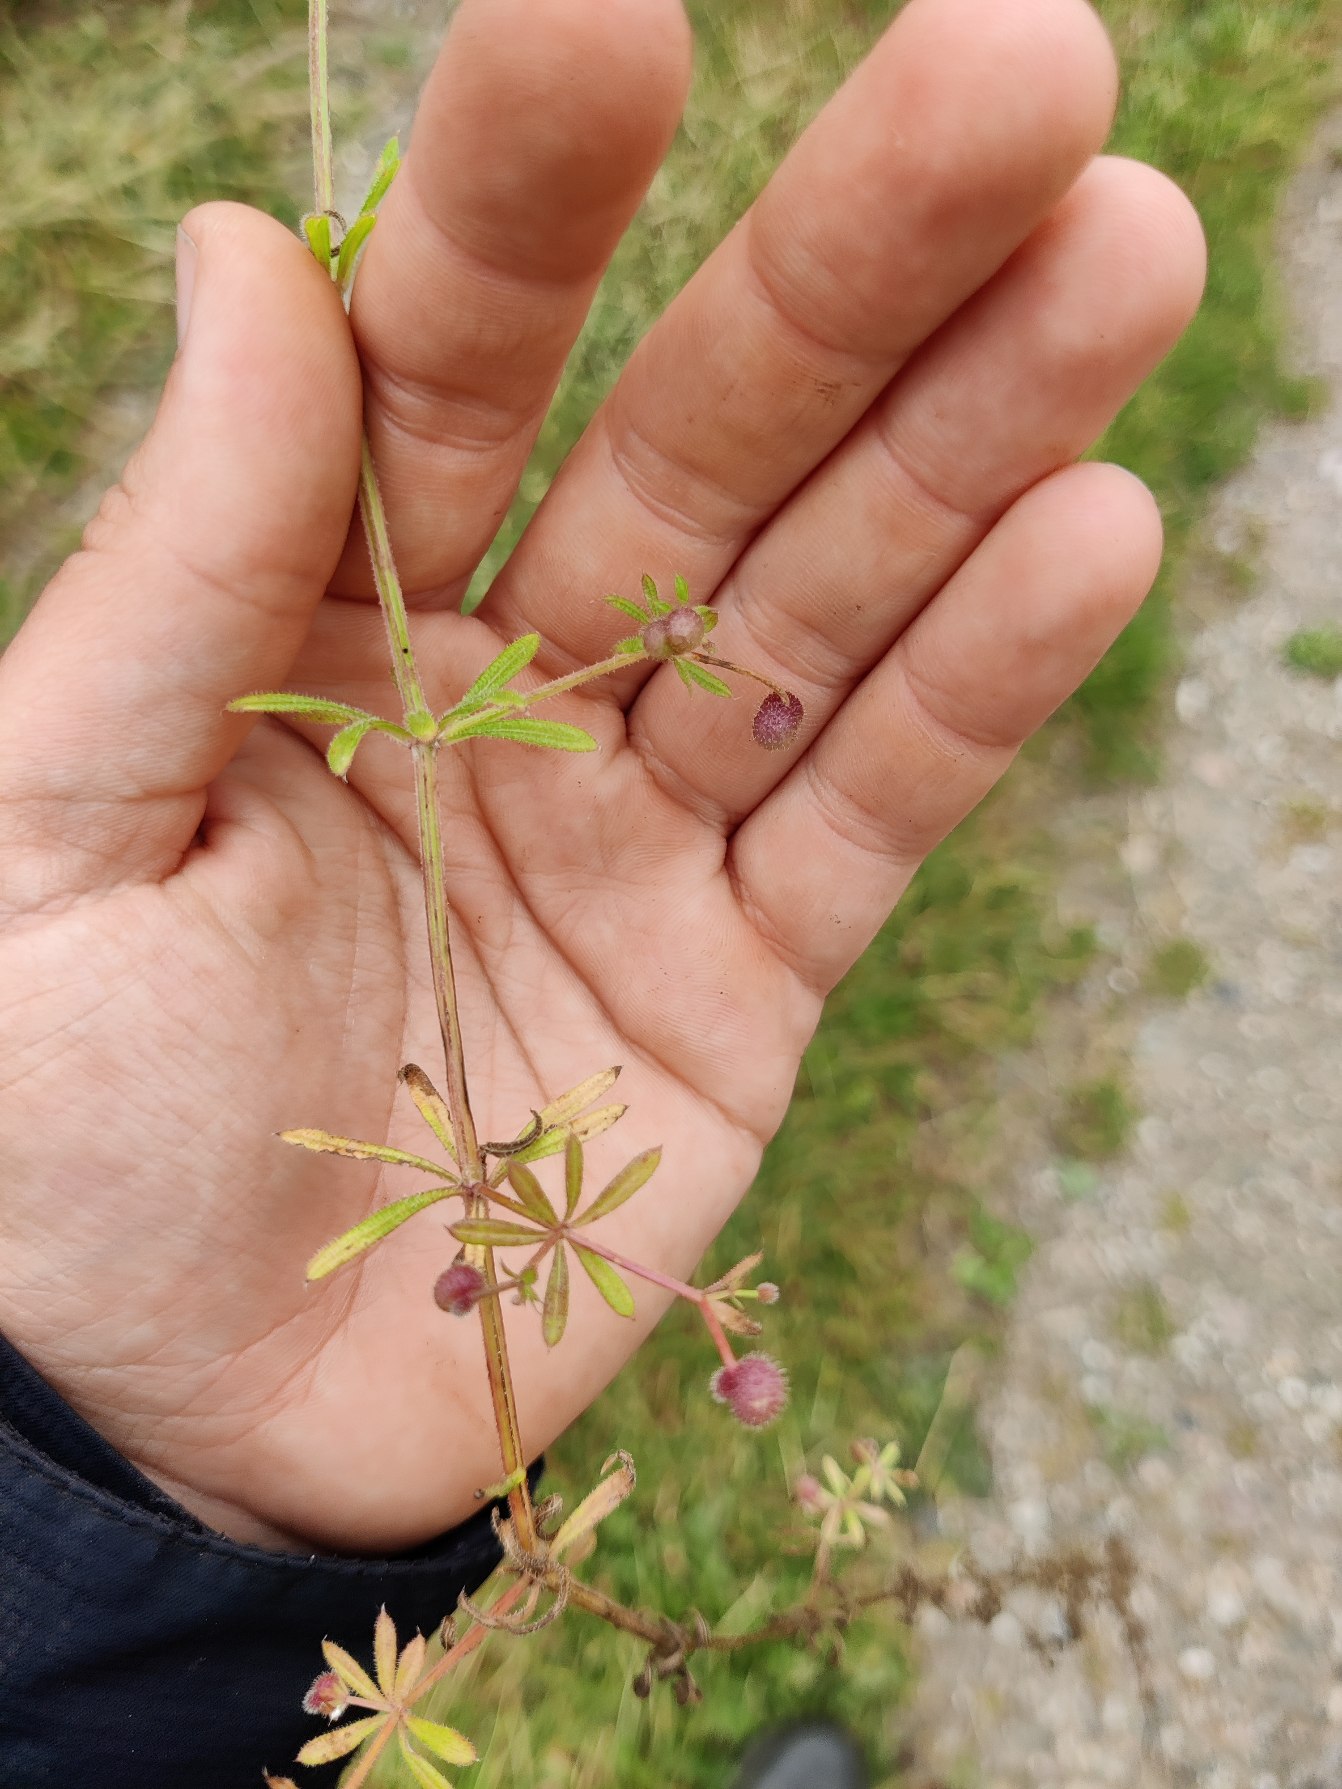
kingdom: Plantae
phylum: Tracheophyta
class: Magnoliopsida
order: Gentianales
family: Rubiaceae
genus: Galium
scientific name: Galium aparine
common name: Burre-snerre
